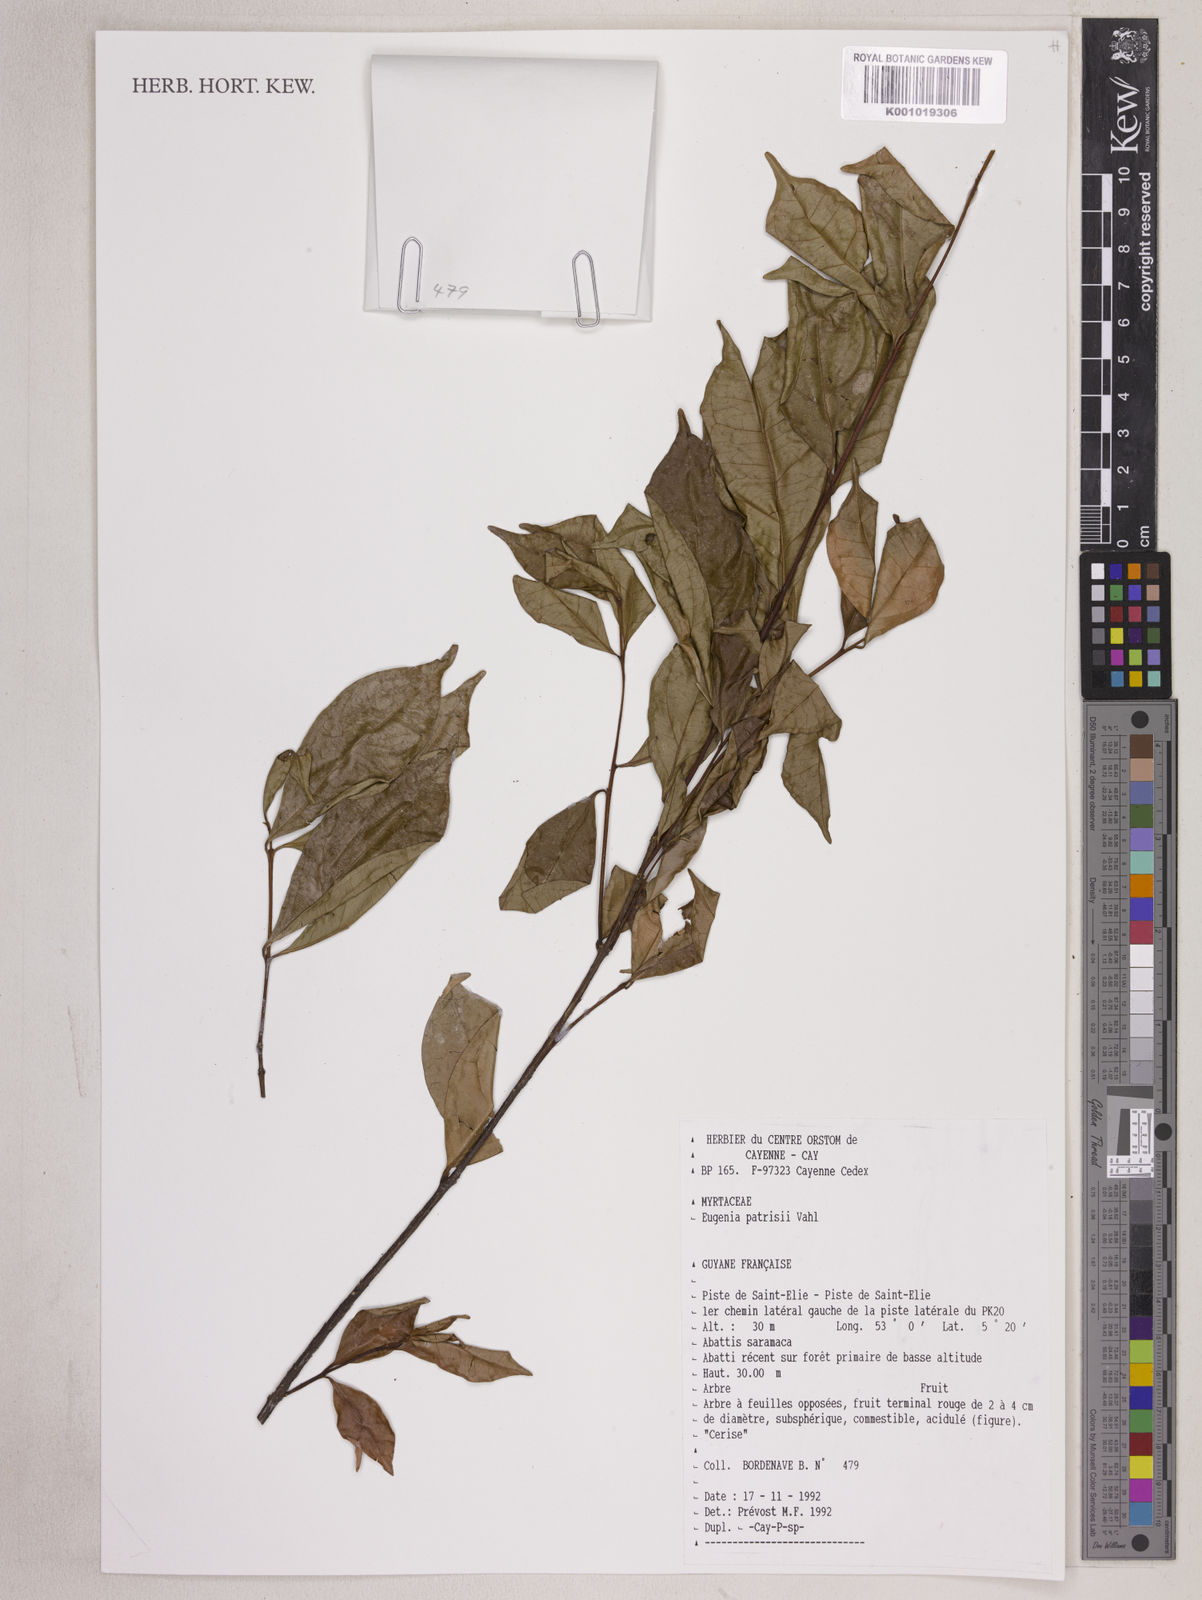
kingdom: Plantae
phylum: Tracheophyta
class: Magnoliopsida
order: Myrtales
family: Myrtaceae
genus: Eugenia
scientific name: Eugenia patrisii
